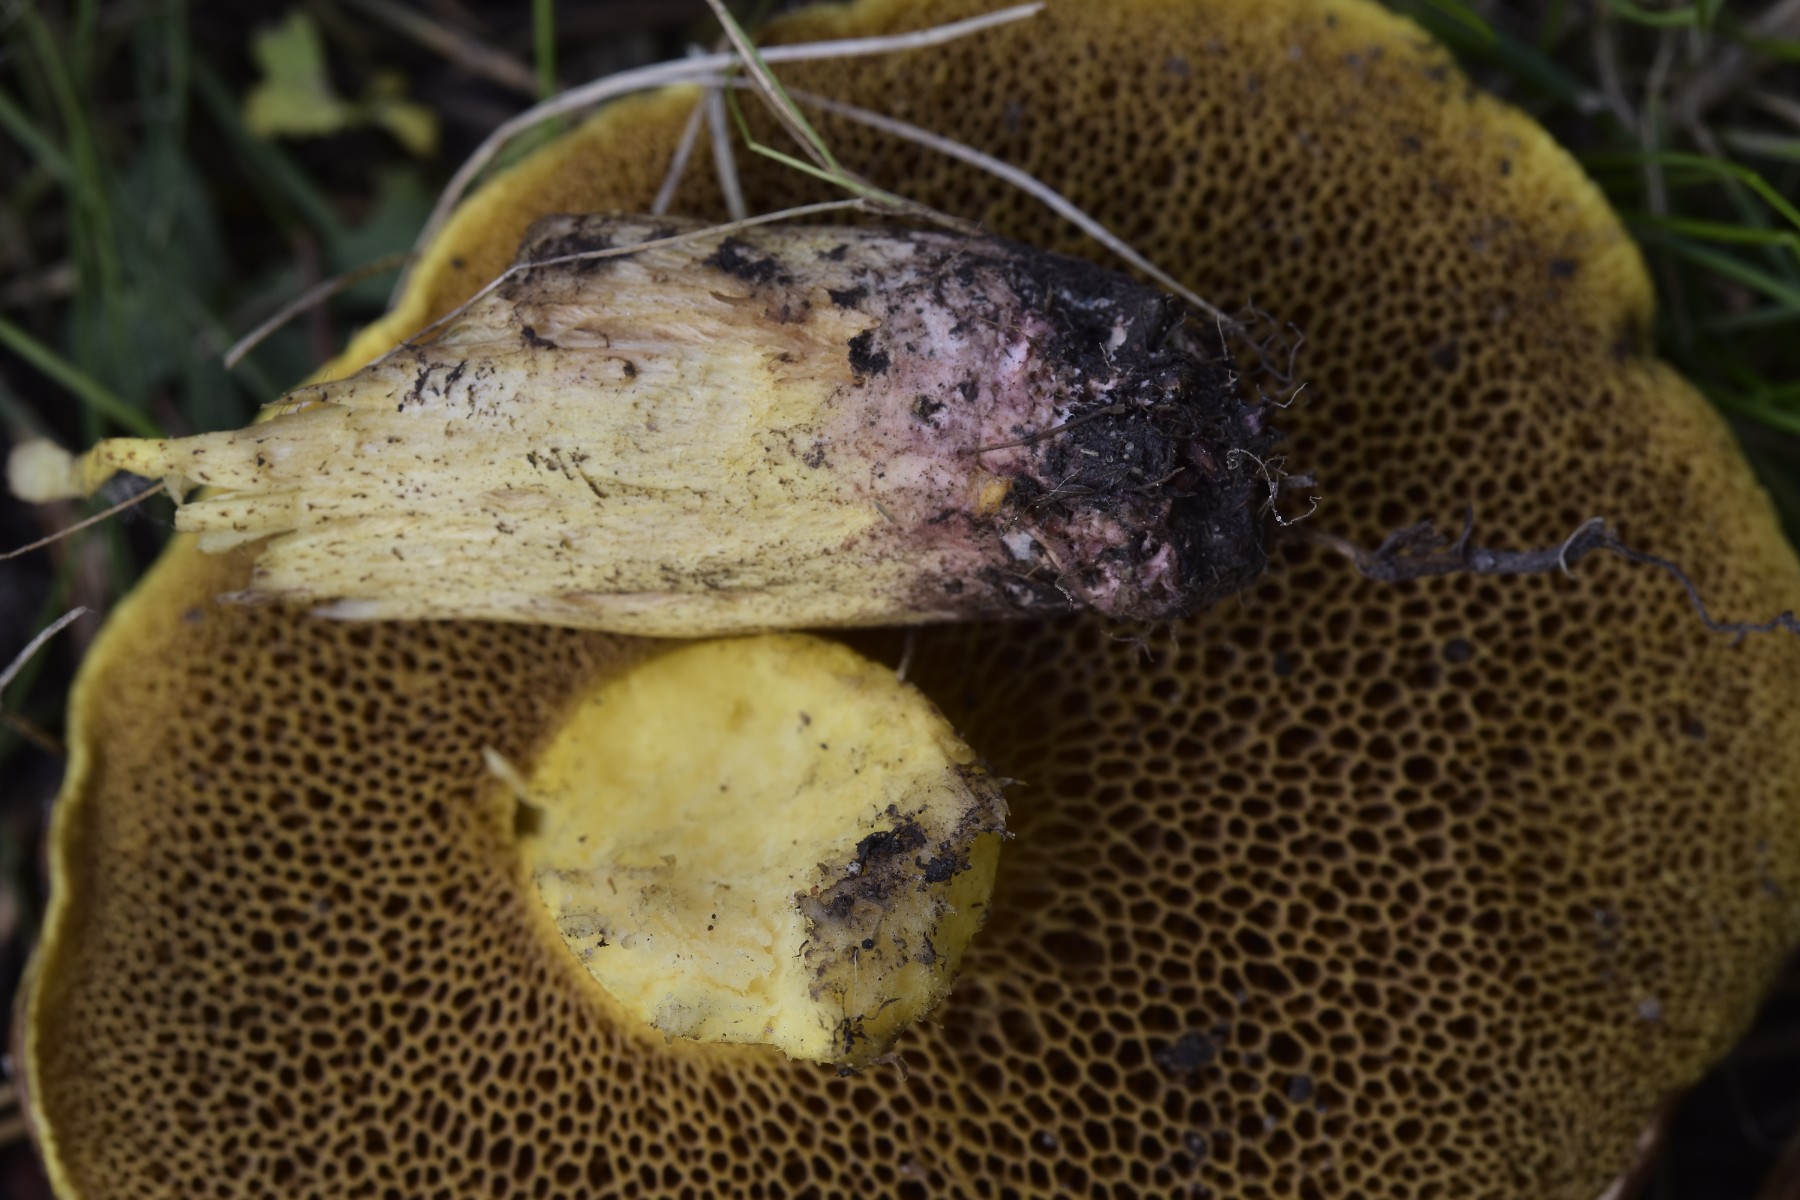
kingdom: Fungi
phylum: Basidiomycota
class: Agaricomycetes
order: Boletales
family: Suillaceae
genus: Suillus
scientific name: Suillus collinitus
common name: rosafodet slimrørhat
